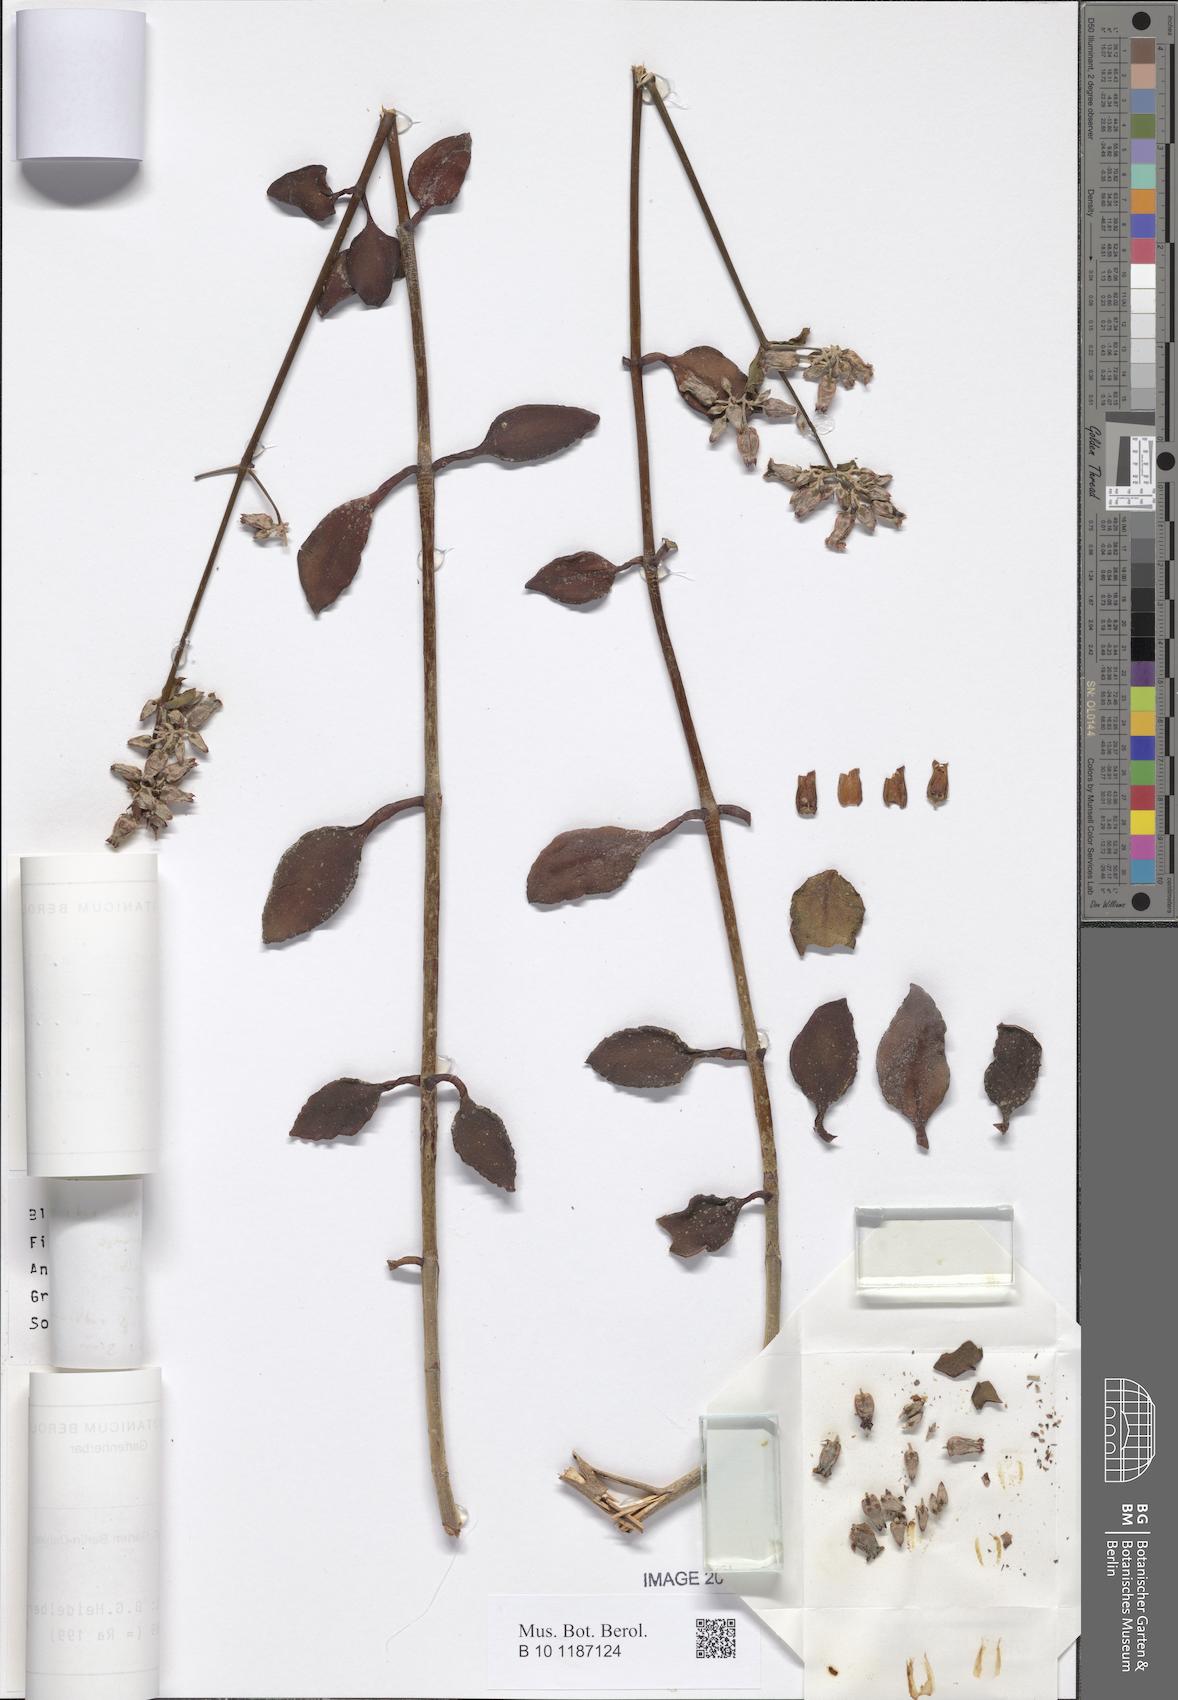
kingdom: Plantae
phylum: Tracheophyta
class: Magnoliopsida
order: Saxifragales
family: Crassulaceae
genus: Kalanchoe
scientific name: Kalanchoe bracteata
